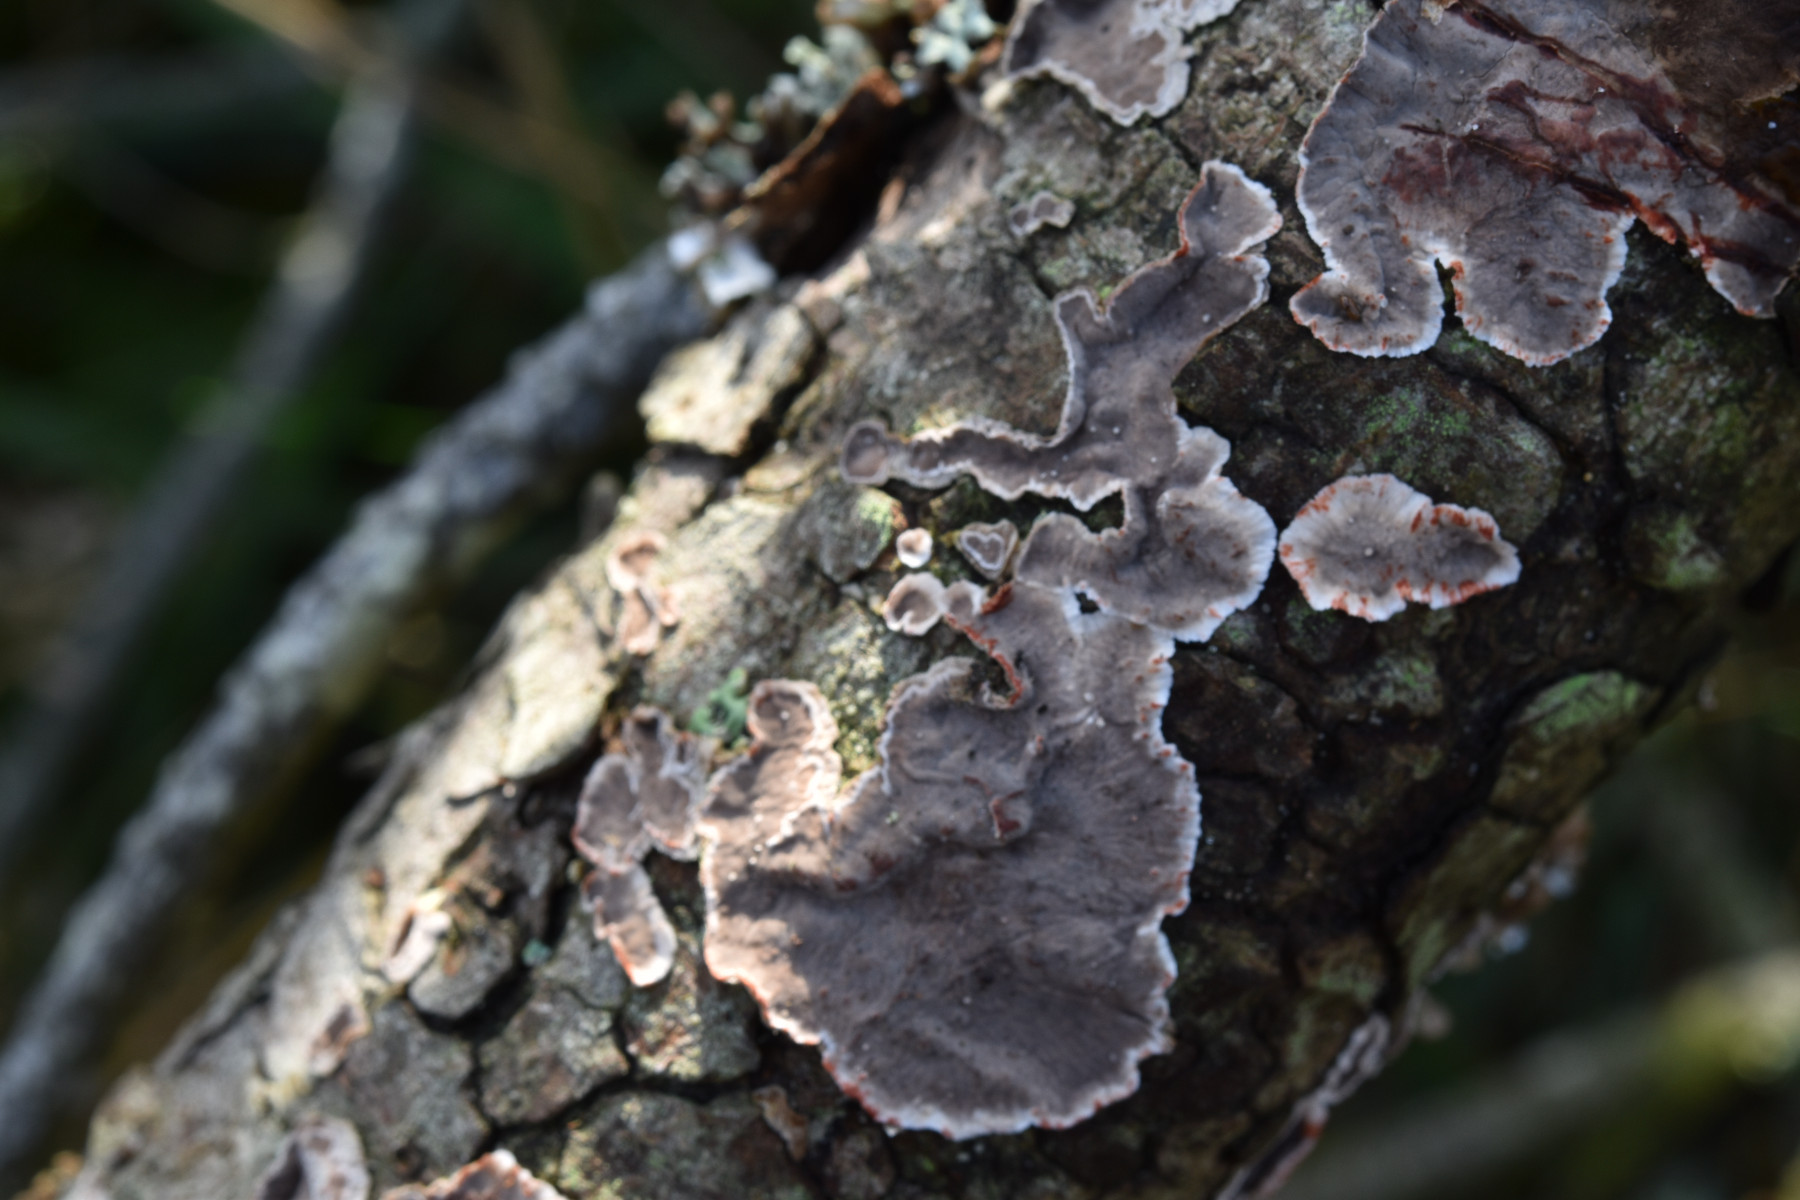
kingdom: Fungi
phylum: Basidiomycota
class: Agaricomycetes
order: Russulales
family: Stereaceae
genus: Stereum
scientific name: Stereum sanguinolentum
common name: blødende lædersvamp
